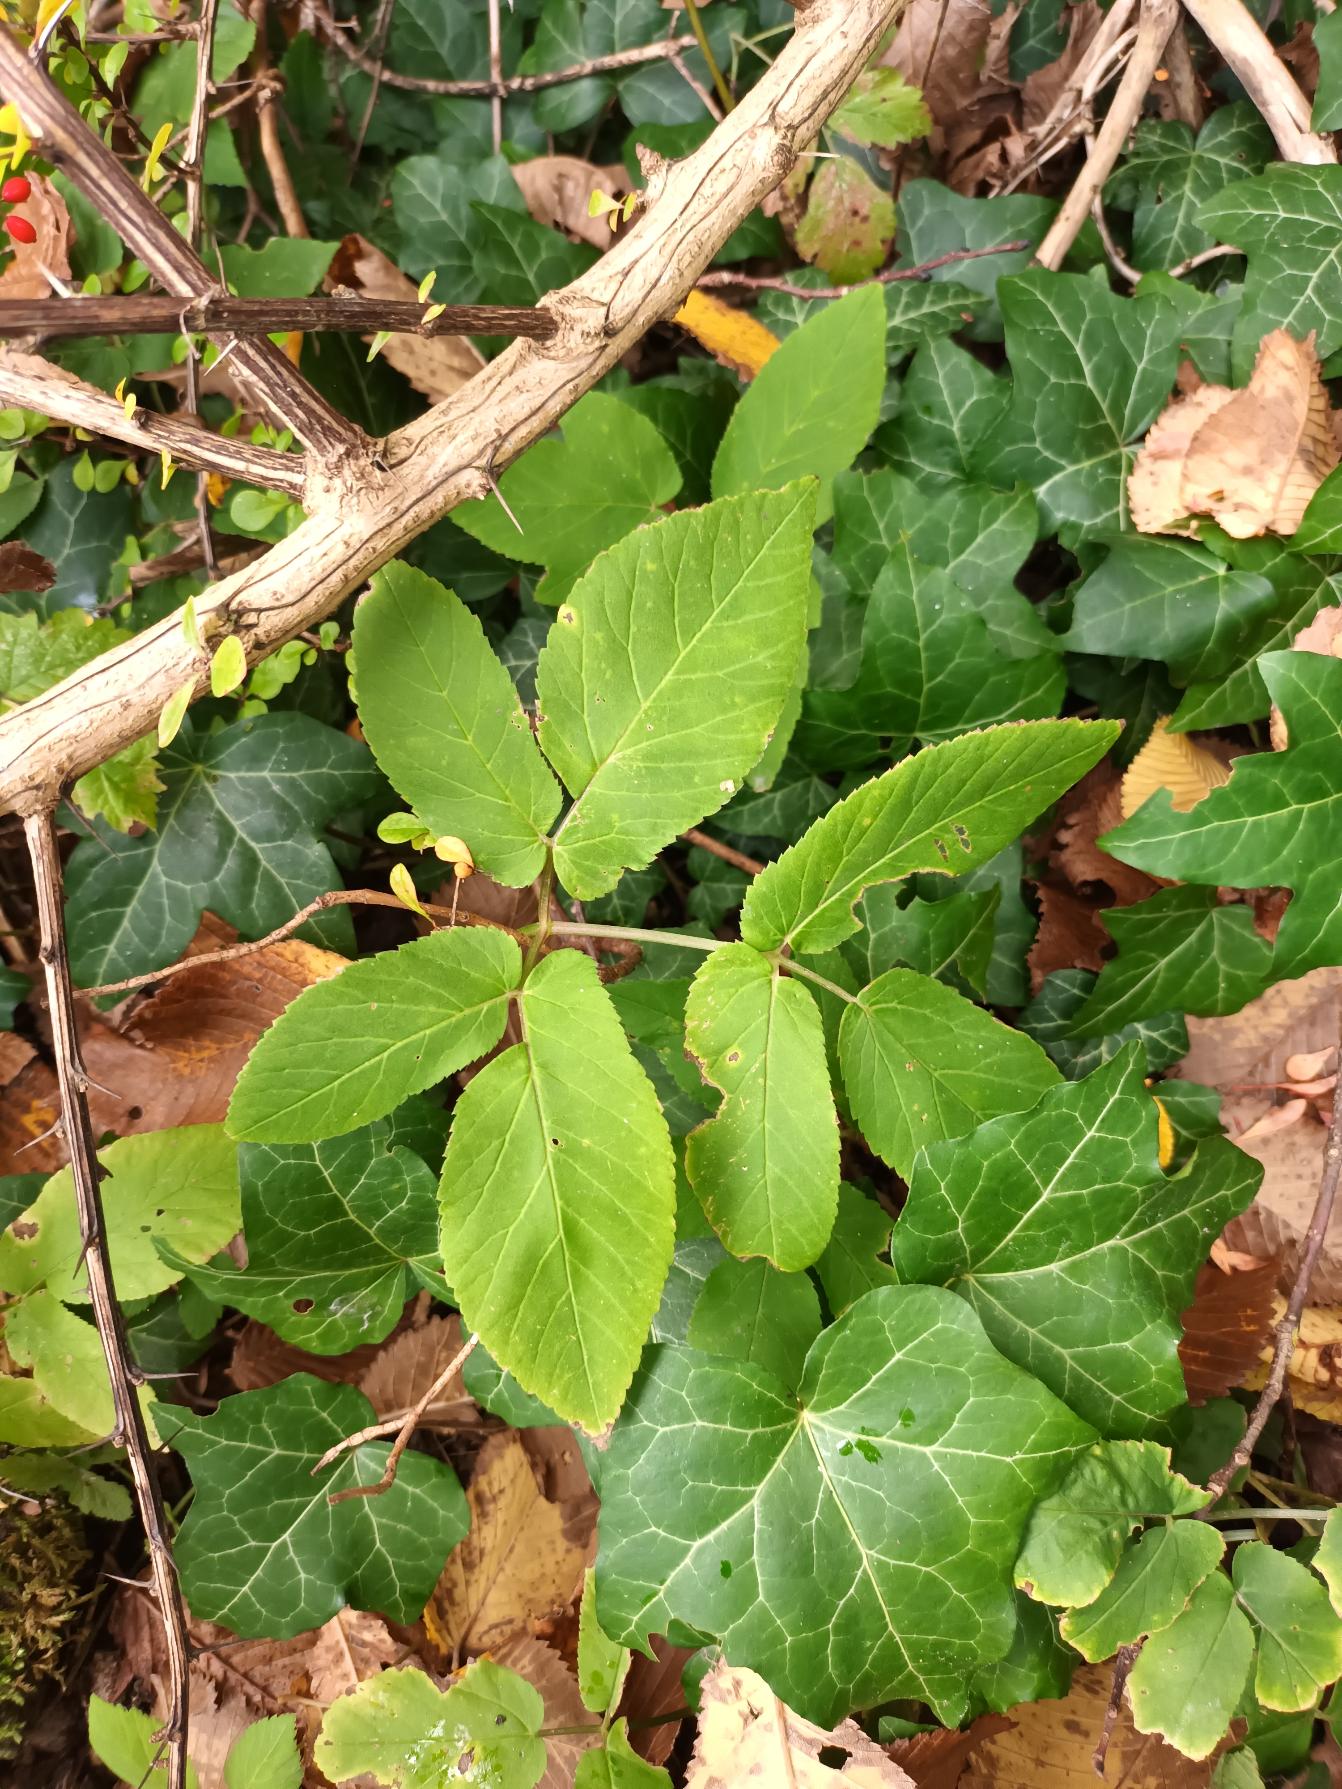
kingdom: Plantae
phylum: Tracheophyta
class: Magnoliopsida
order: Apiales
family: Apiaceae
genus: Aegopodium
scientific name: Aegopodium podagraria
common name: Skvalderkål
